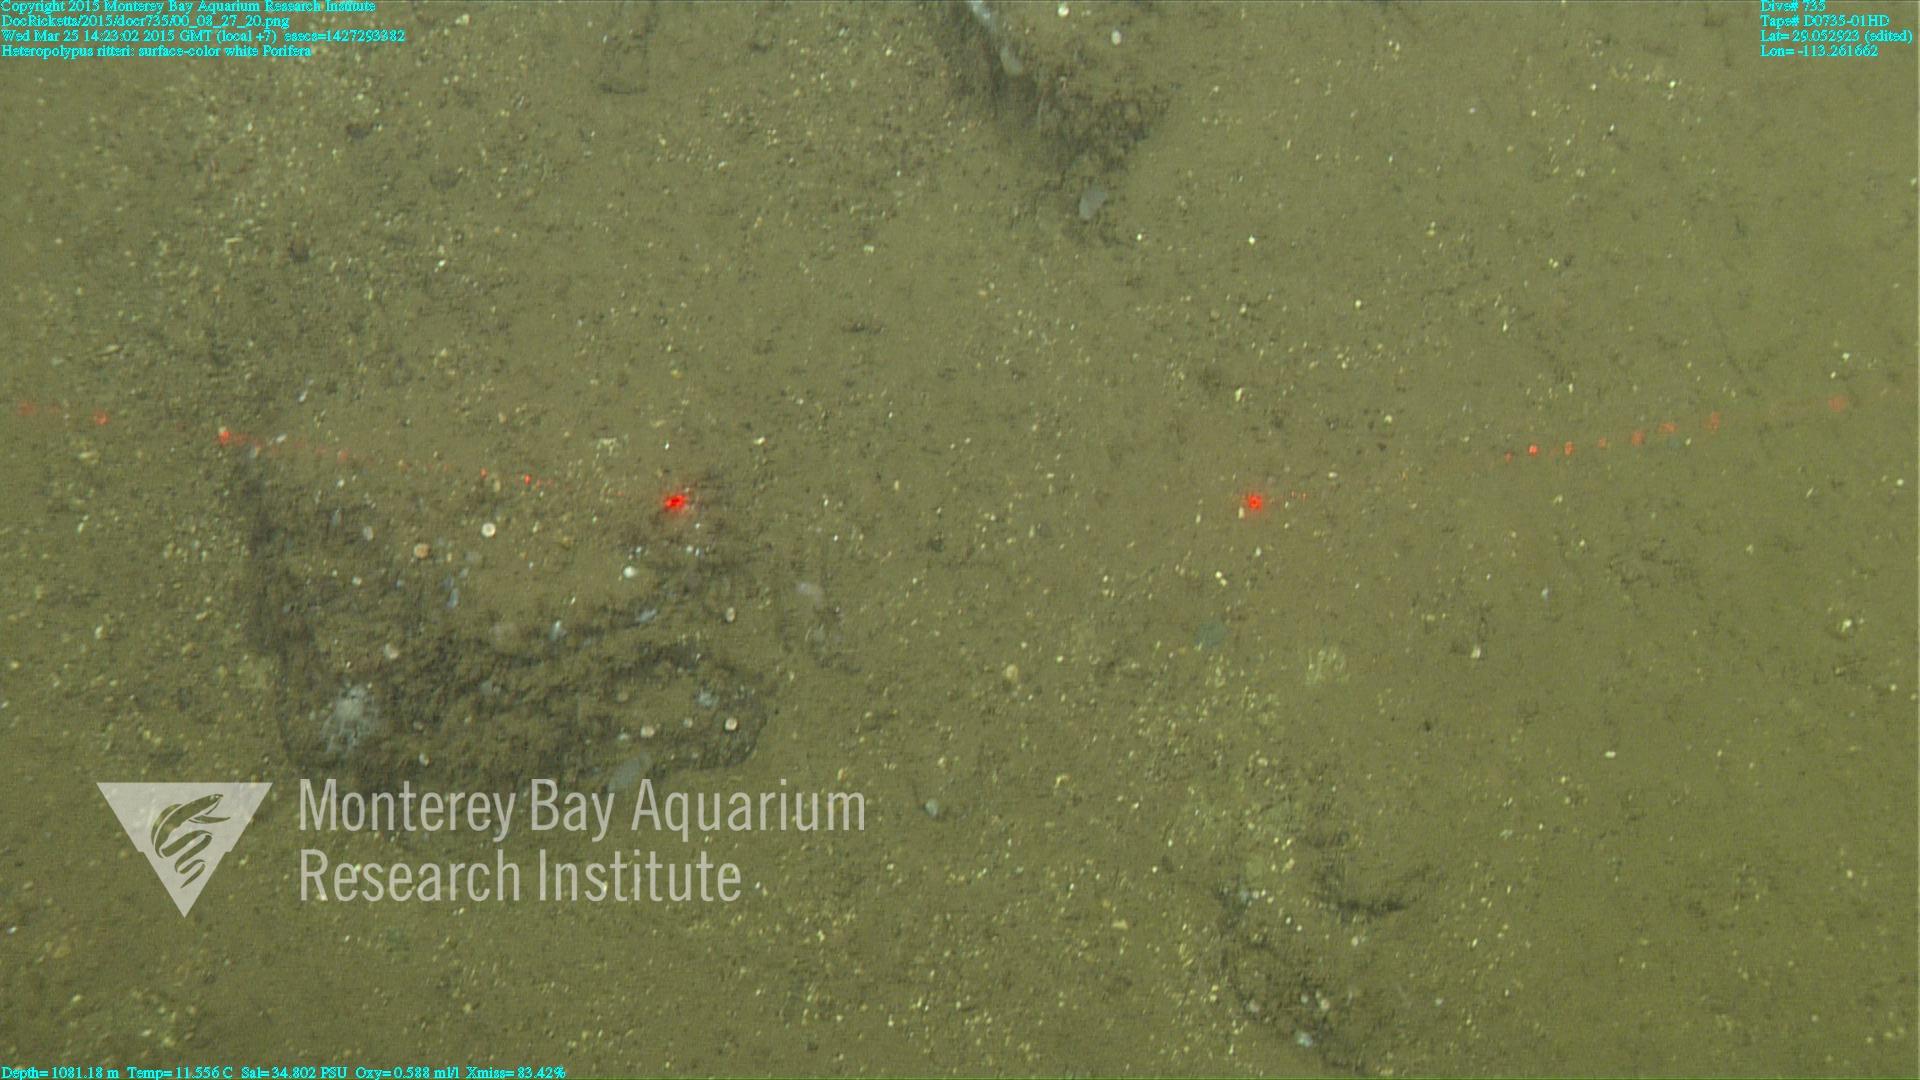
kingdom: Animalia
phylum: Cnidaria
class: Anthozoa
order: Scleralcyonacea
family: Coralliidae
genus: Heteropolypus
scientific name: Heteropolypus ritteri
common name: Ritter's soft coral
